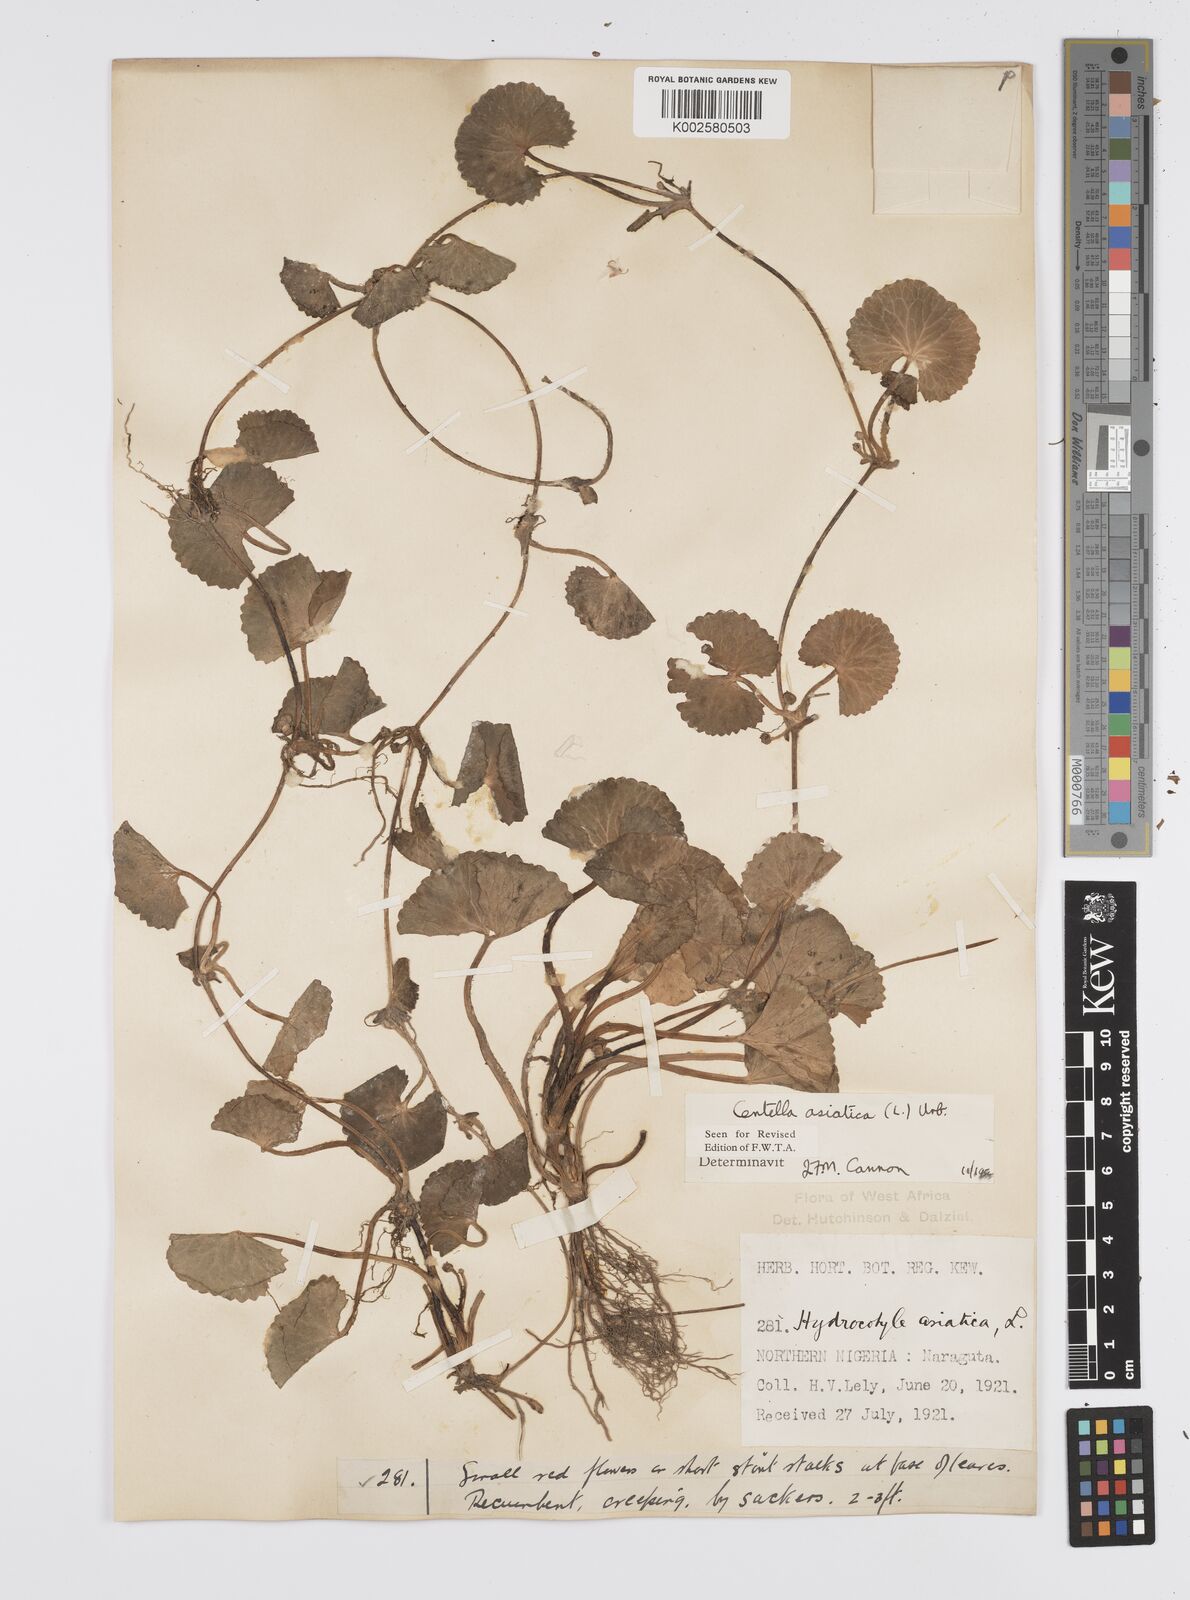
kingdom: Plantae
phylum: Tracheophyta
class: Magnoliopsida
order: Apiales
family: Apiaceae
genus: Centella
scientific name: Centella asiatica
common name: Spadeleaf
